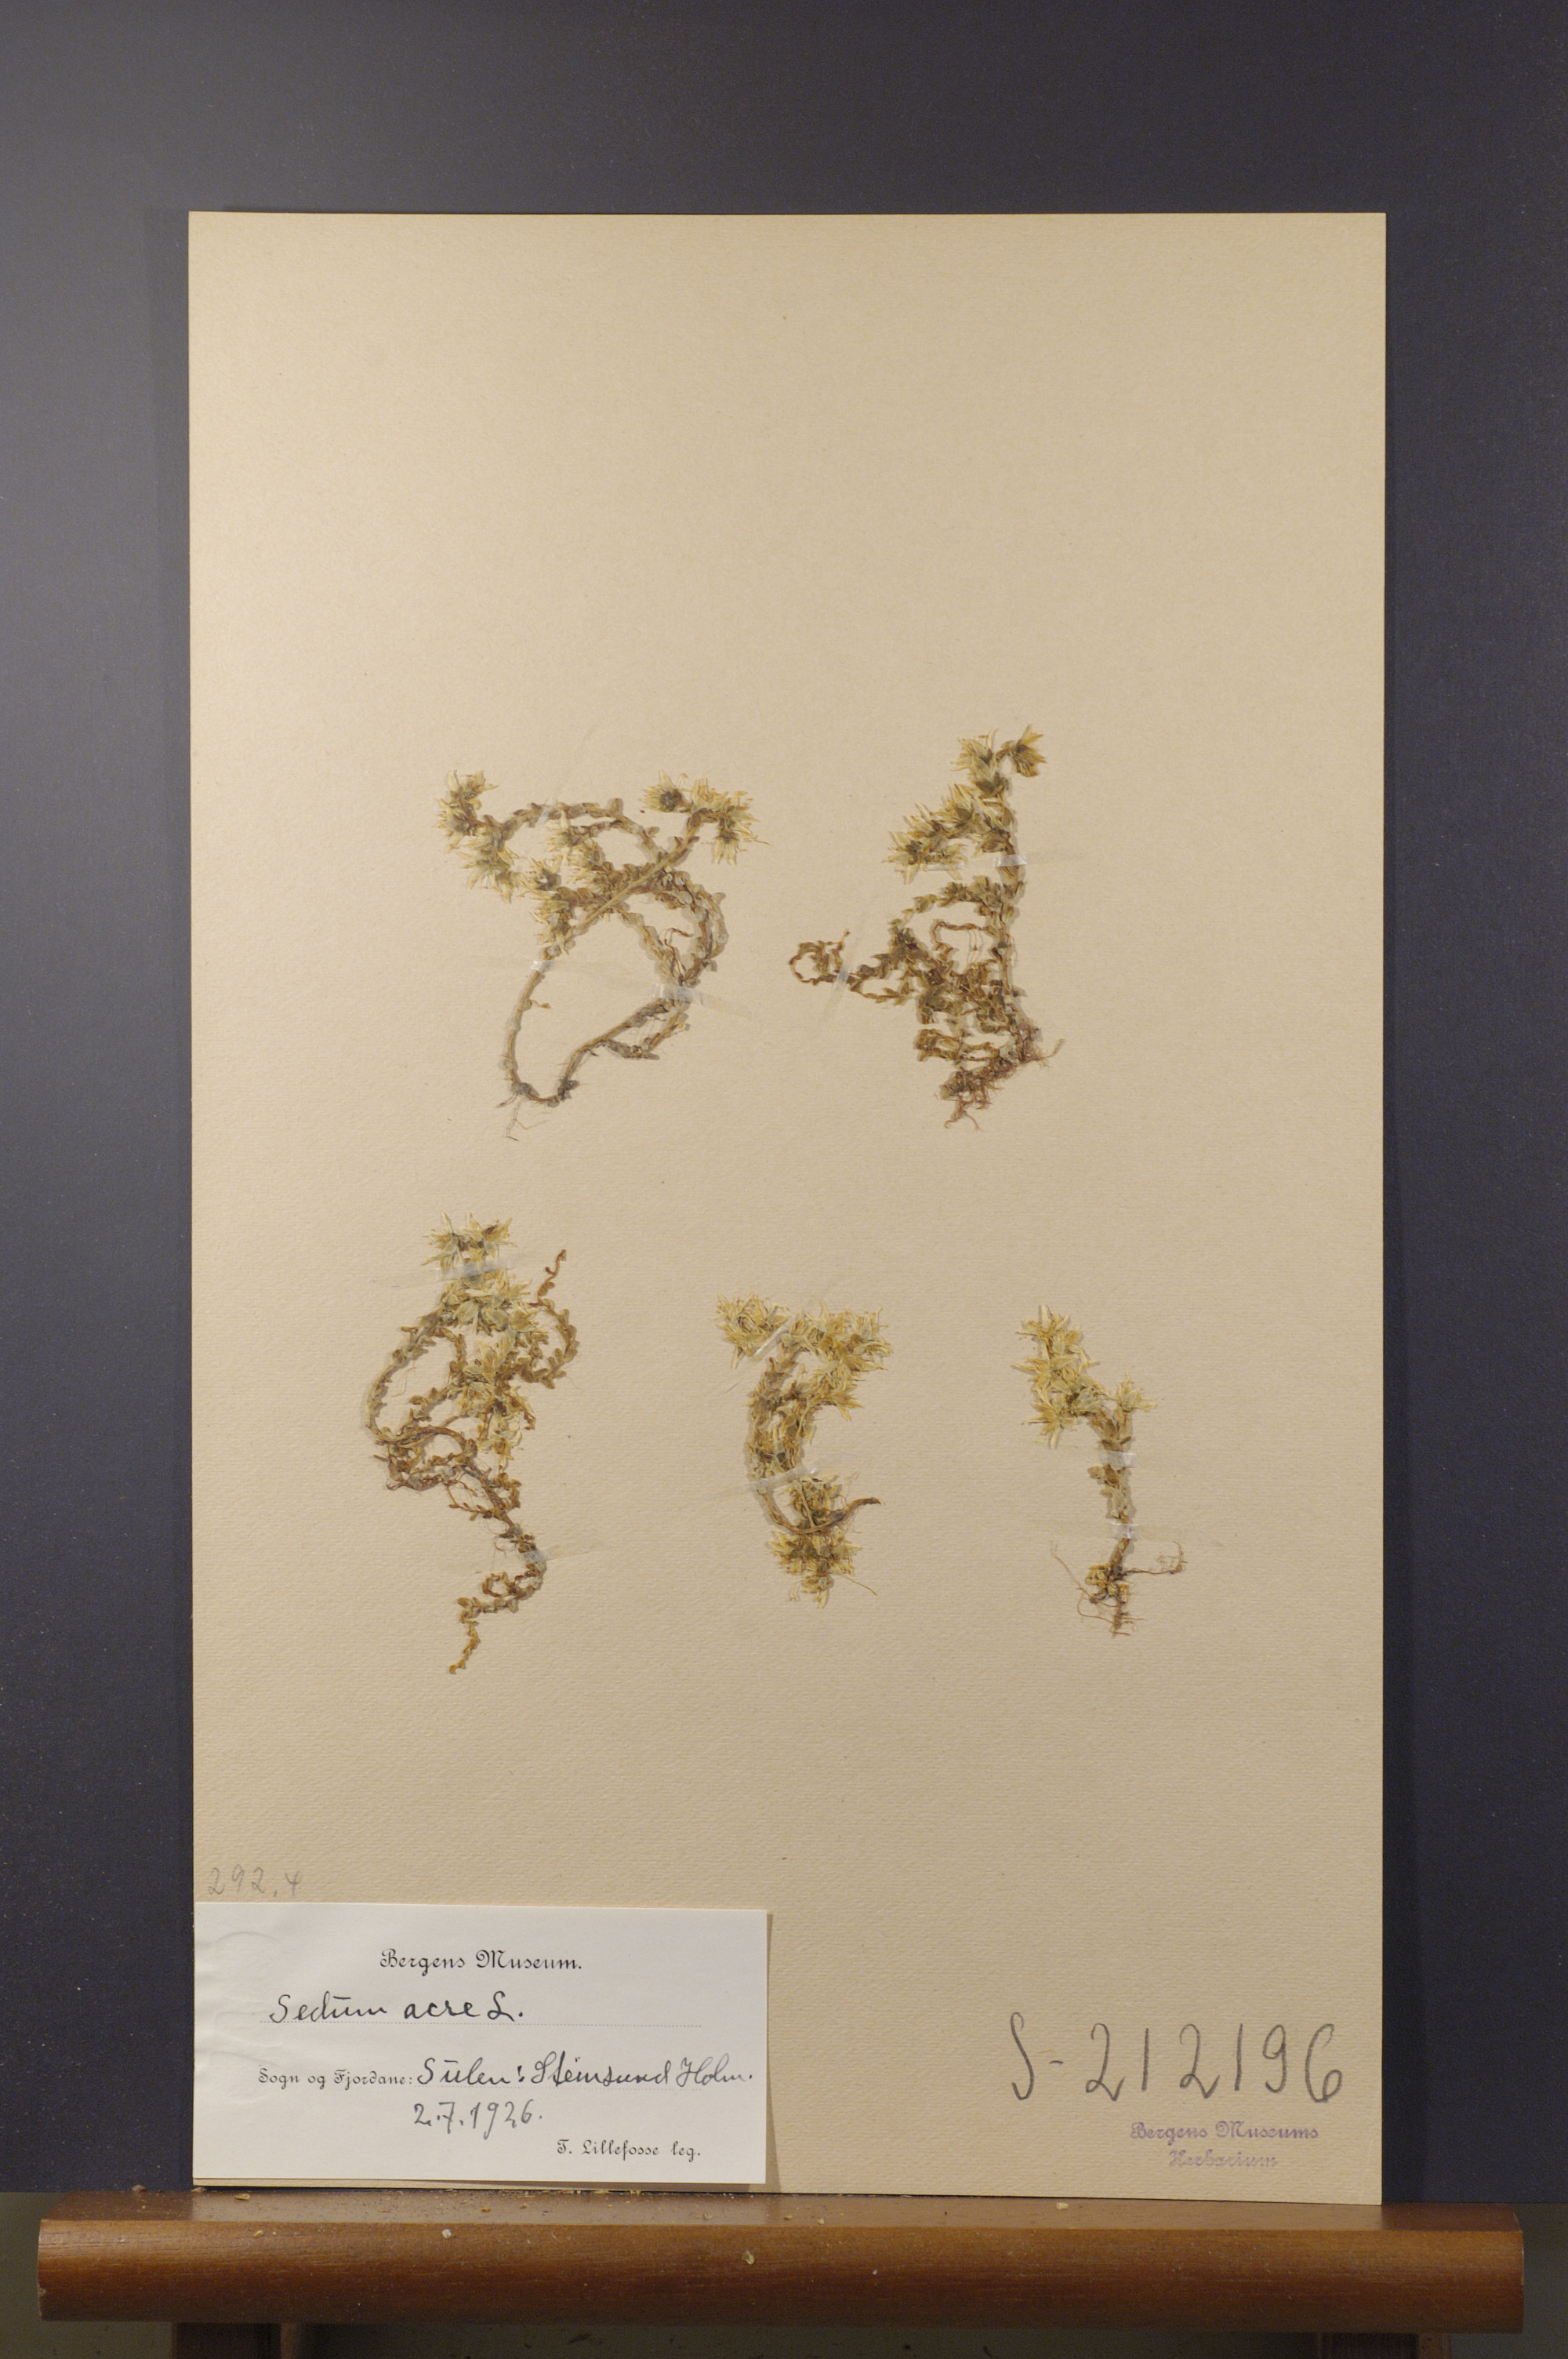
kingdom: Plantae
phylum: Tracheophyta
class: Magnoliopsida
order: Saxifragales
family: Crassulaceae
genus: Sedum
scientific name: Sedum acre
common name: Biting stonecrop
